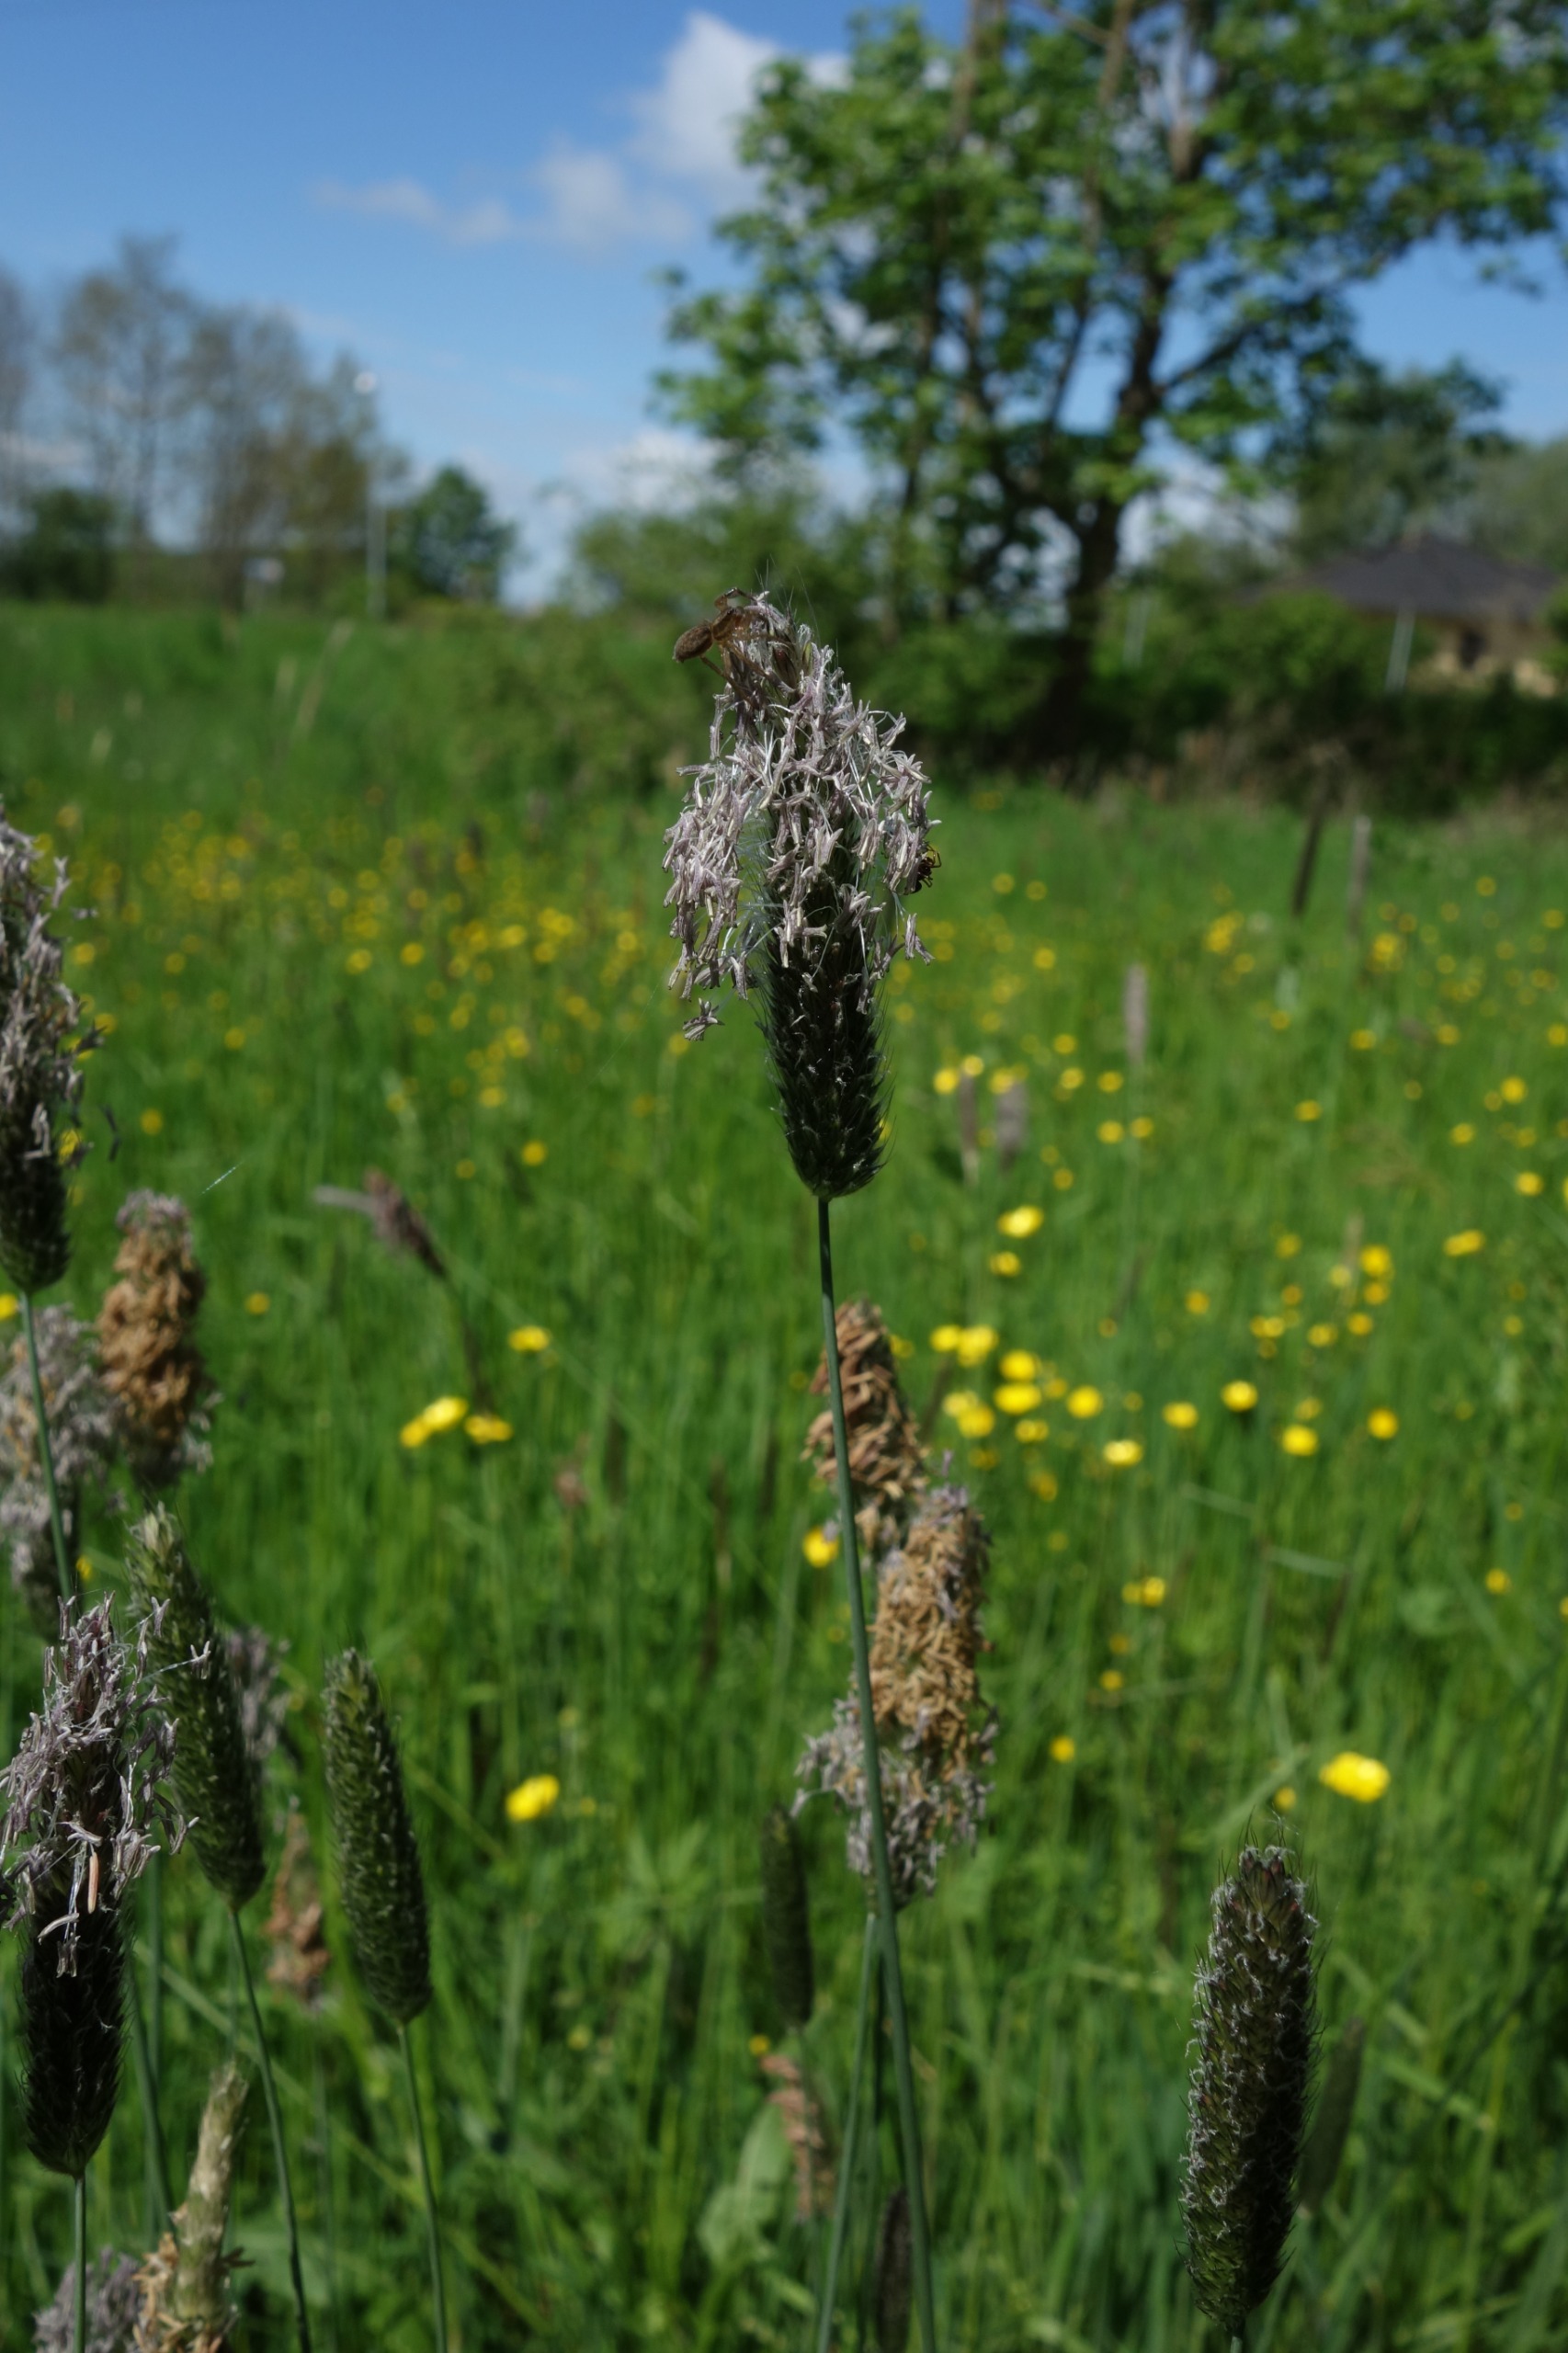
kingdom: Plantae
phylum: Tracheophyta
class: Liliopsida
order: Poales
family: Poaceae
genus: Alopecurus
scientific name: Alopecurus pratensis
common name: Eng-rævehale
